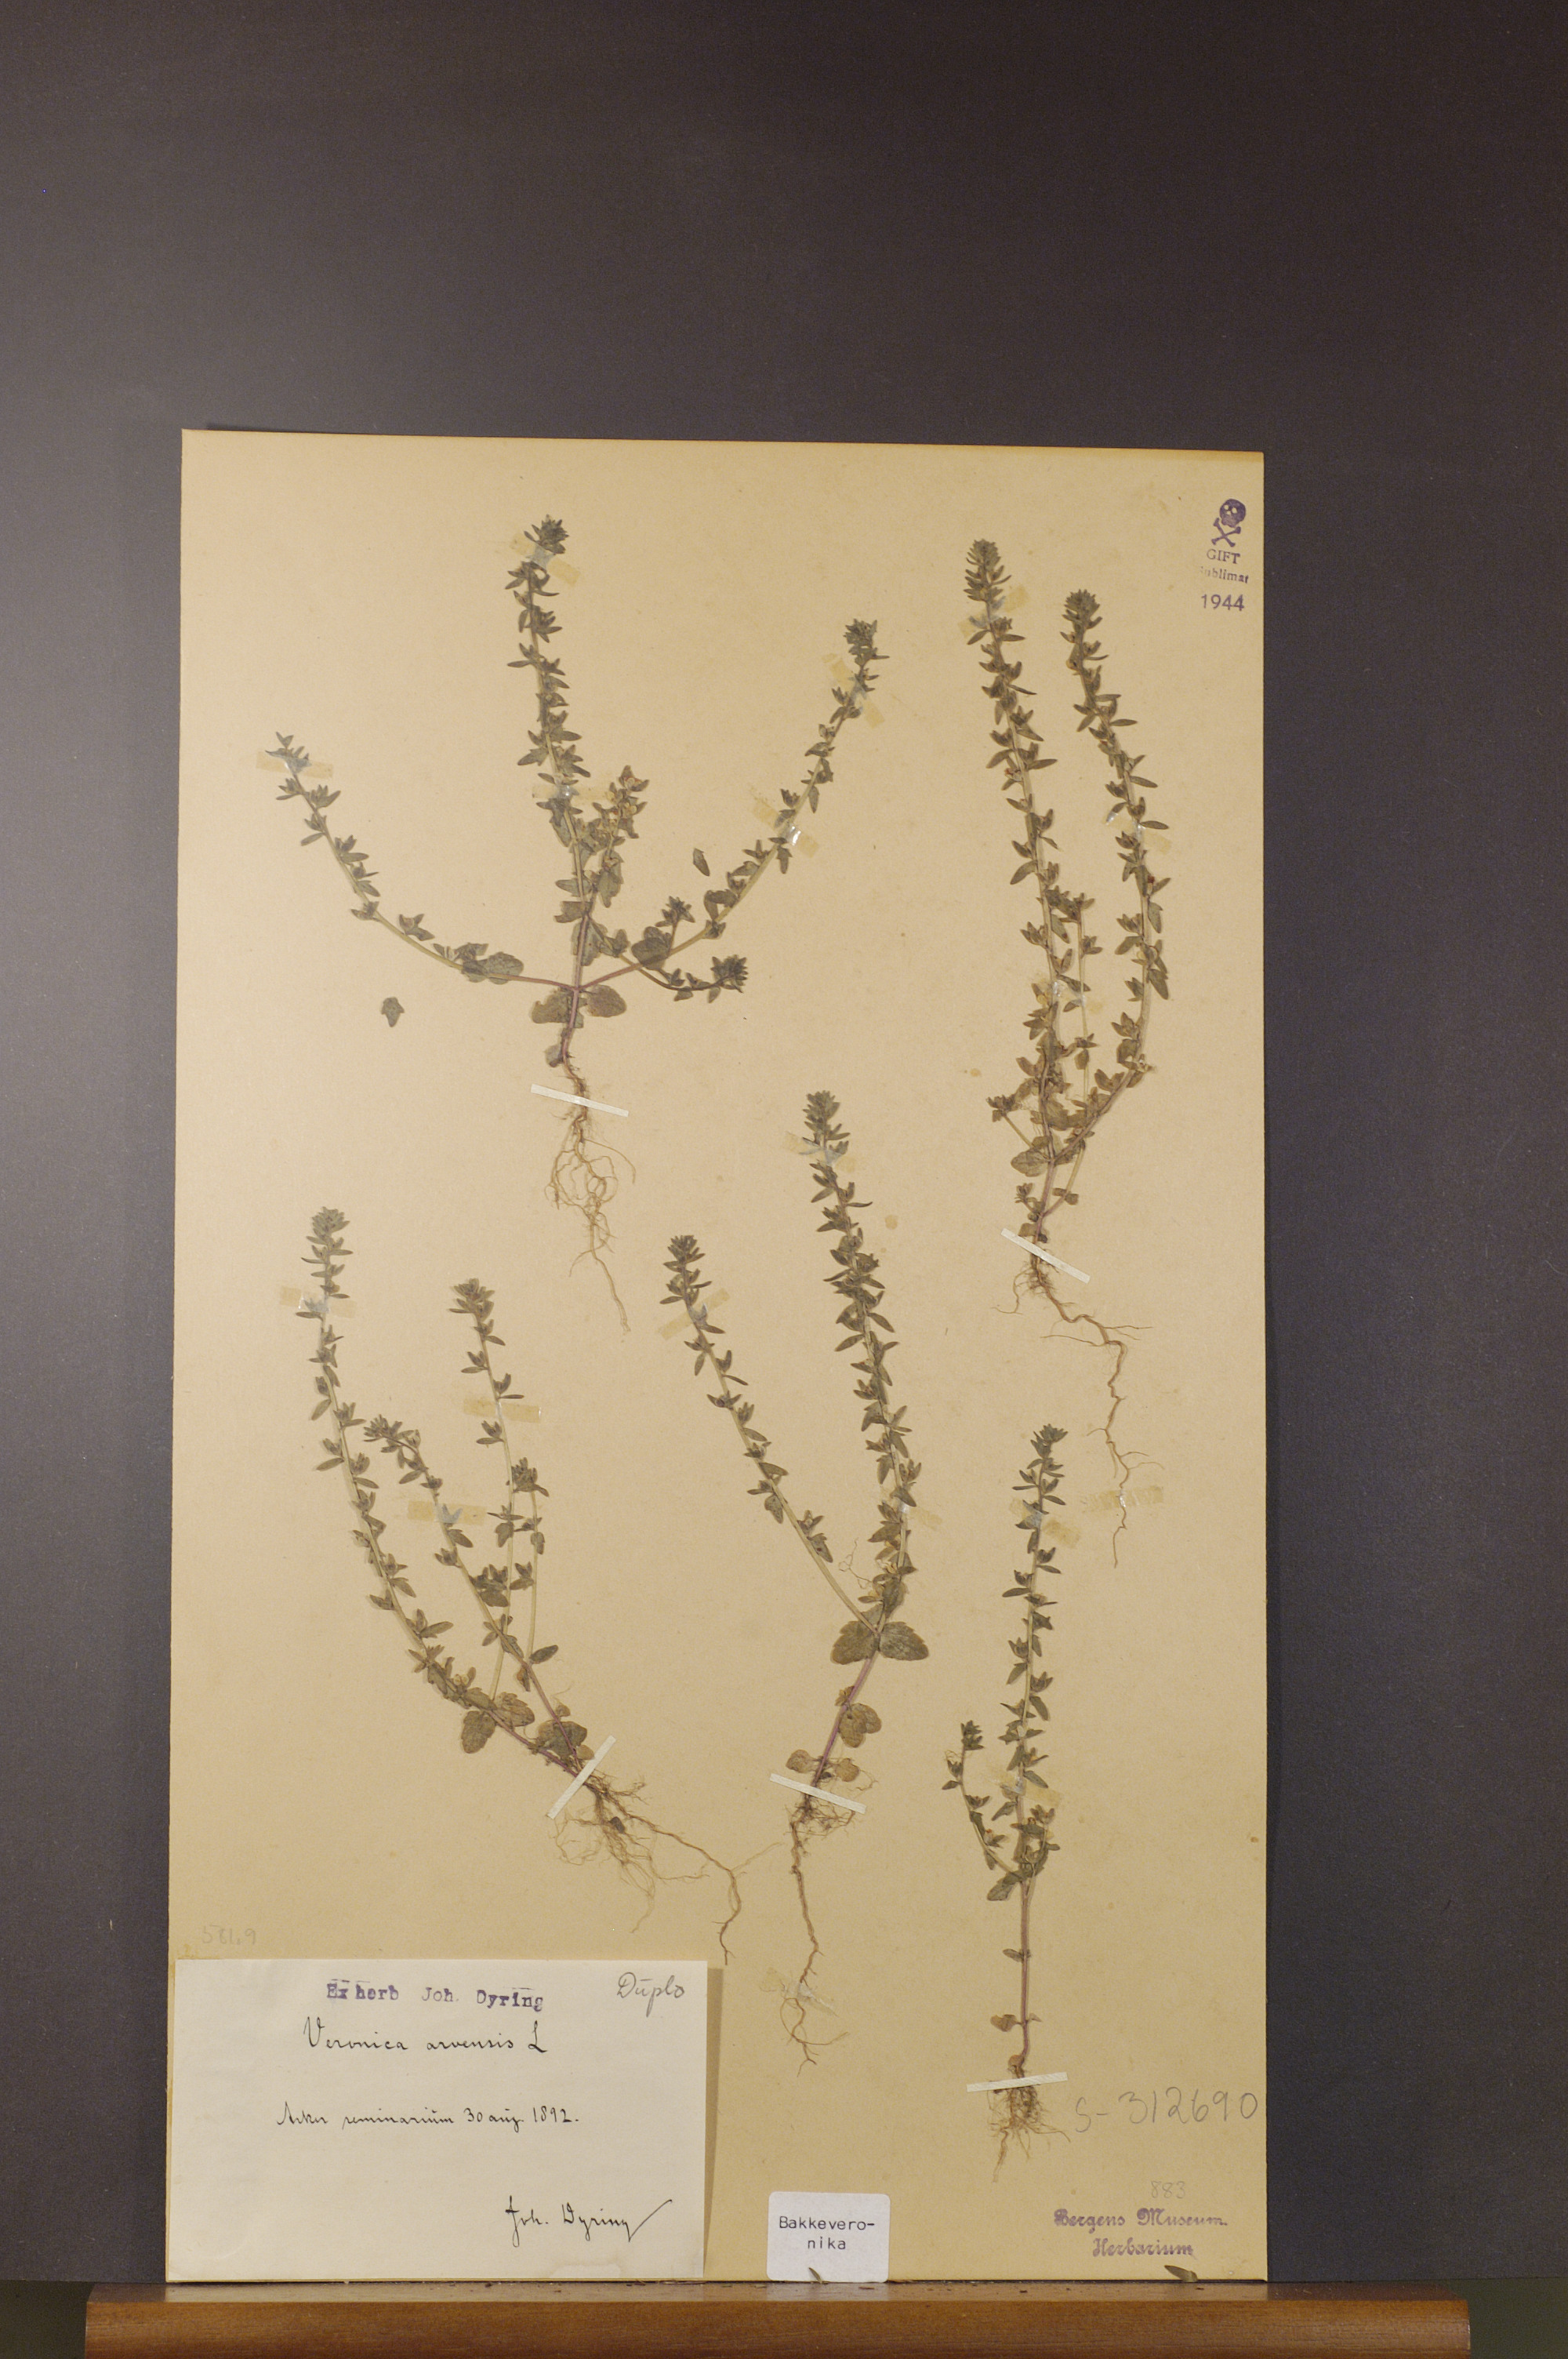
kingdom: Plantae
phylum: Tracheophyta
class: Magnoliopsida
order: Lamiales
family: Plantaginaceae
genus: Veronica
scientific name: Veronica arvensis
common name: Corn speedwell
